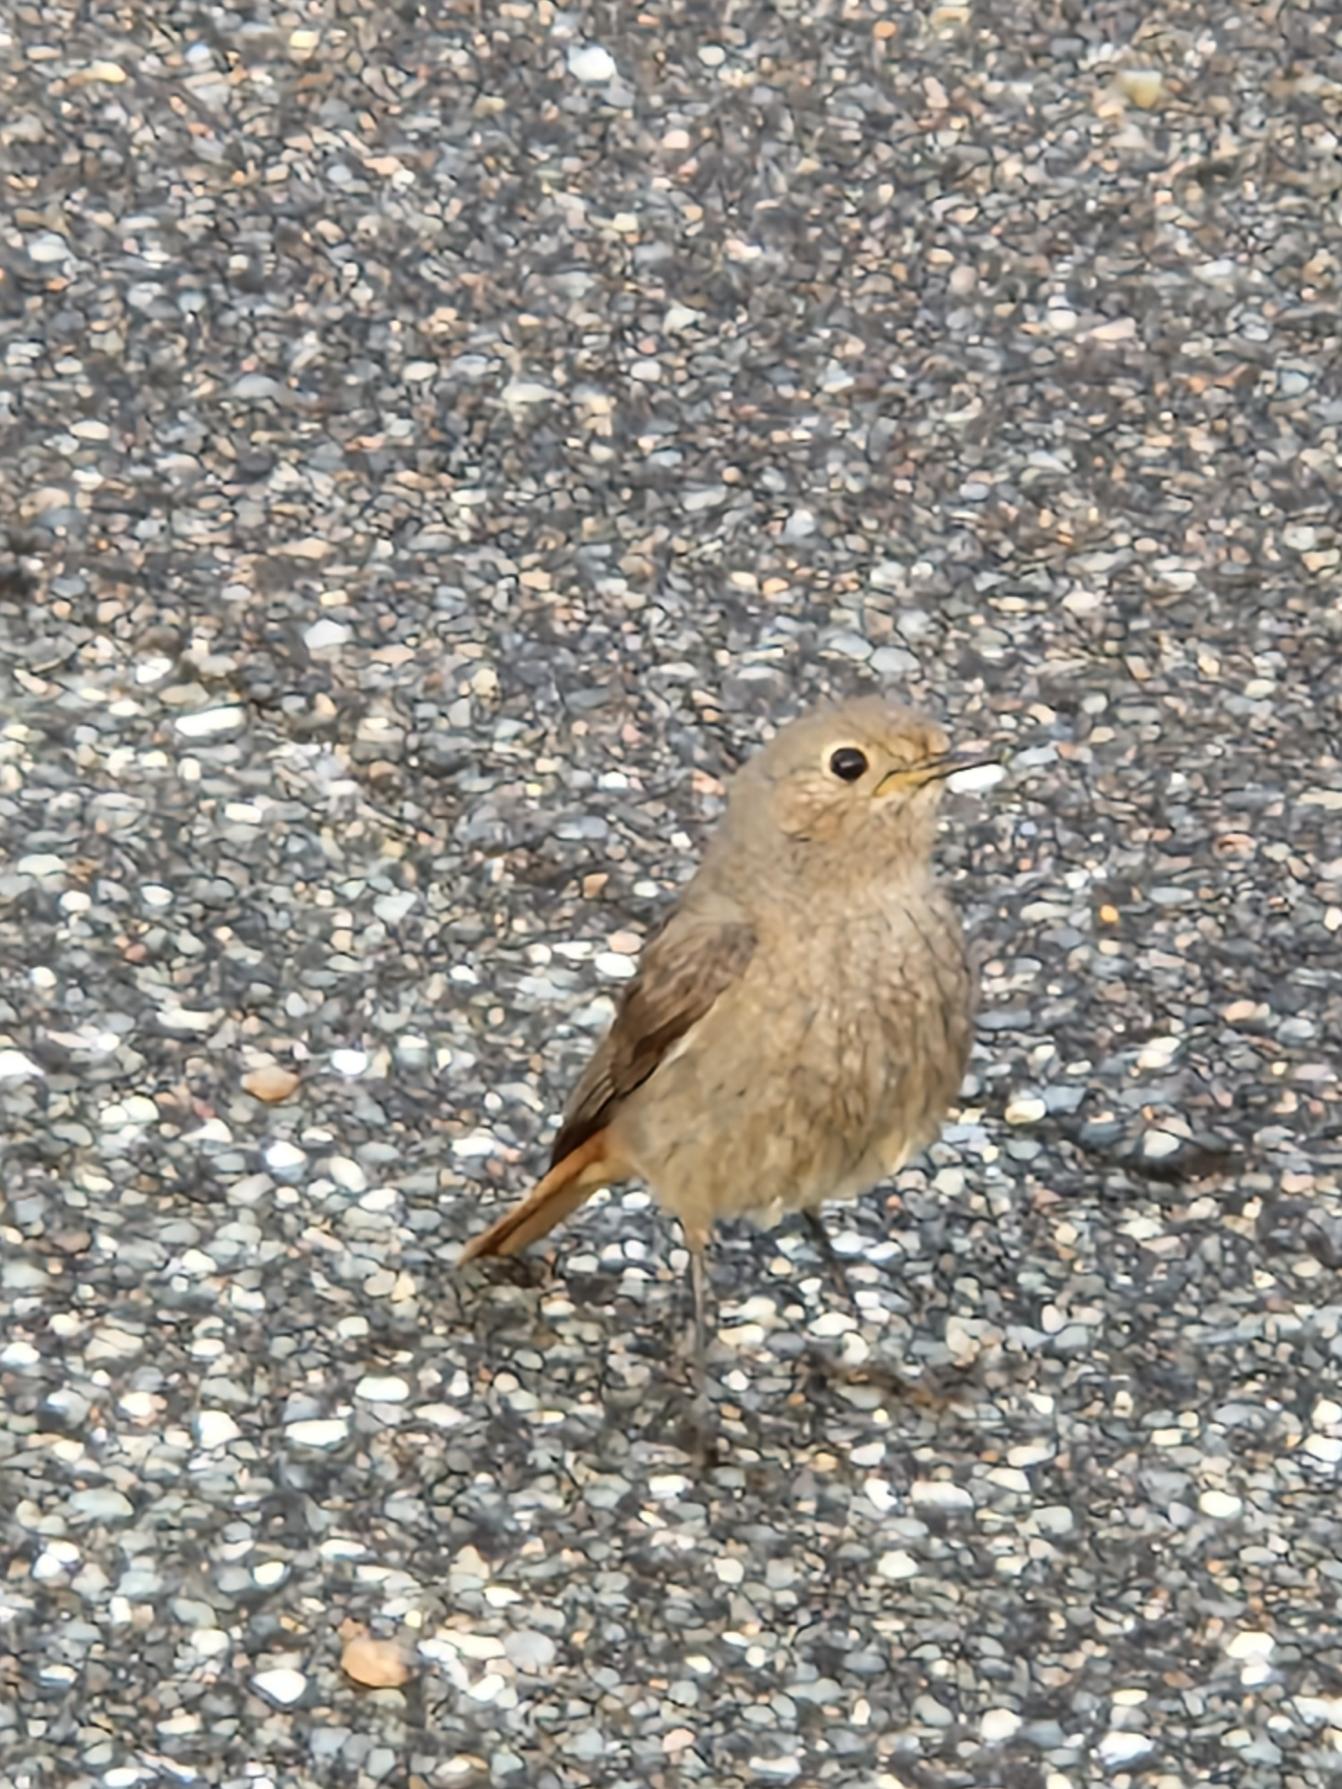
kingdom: Animalia
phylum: Chordata
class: Aves
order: Passeriformes
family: Muscicapidae
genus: Phoenicurus
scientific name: Phoenicurus ochruros
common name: Husrødstjert
